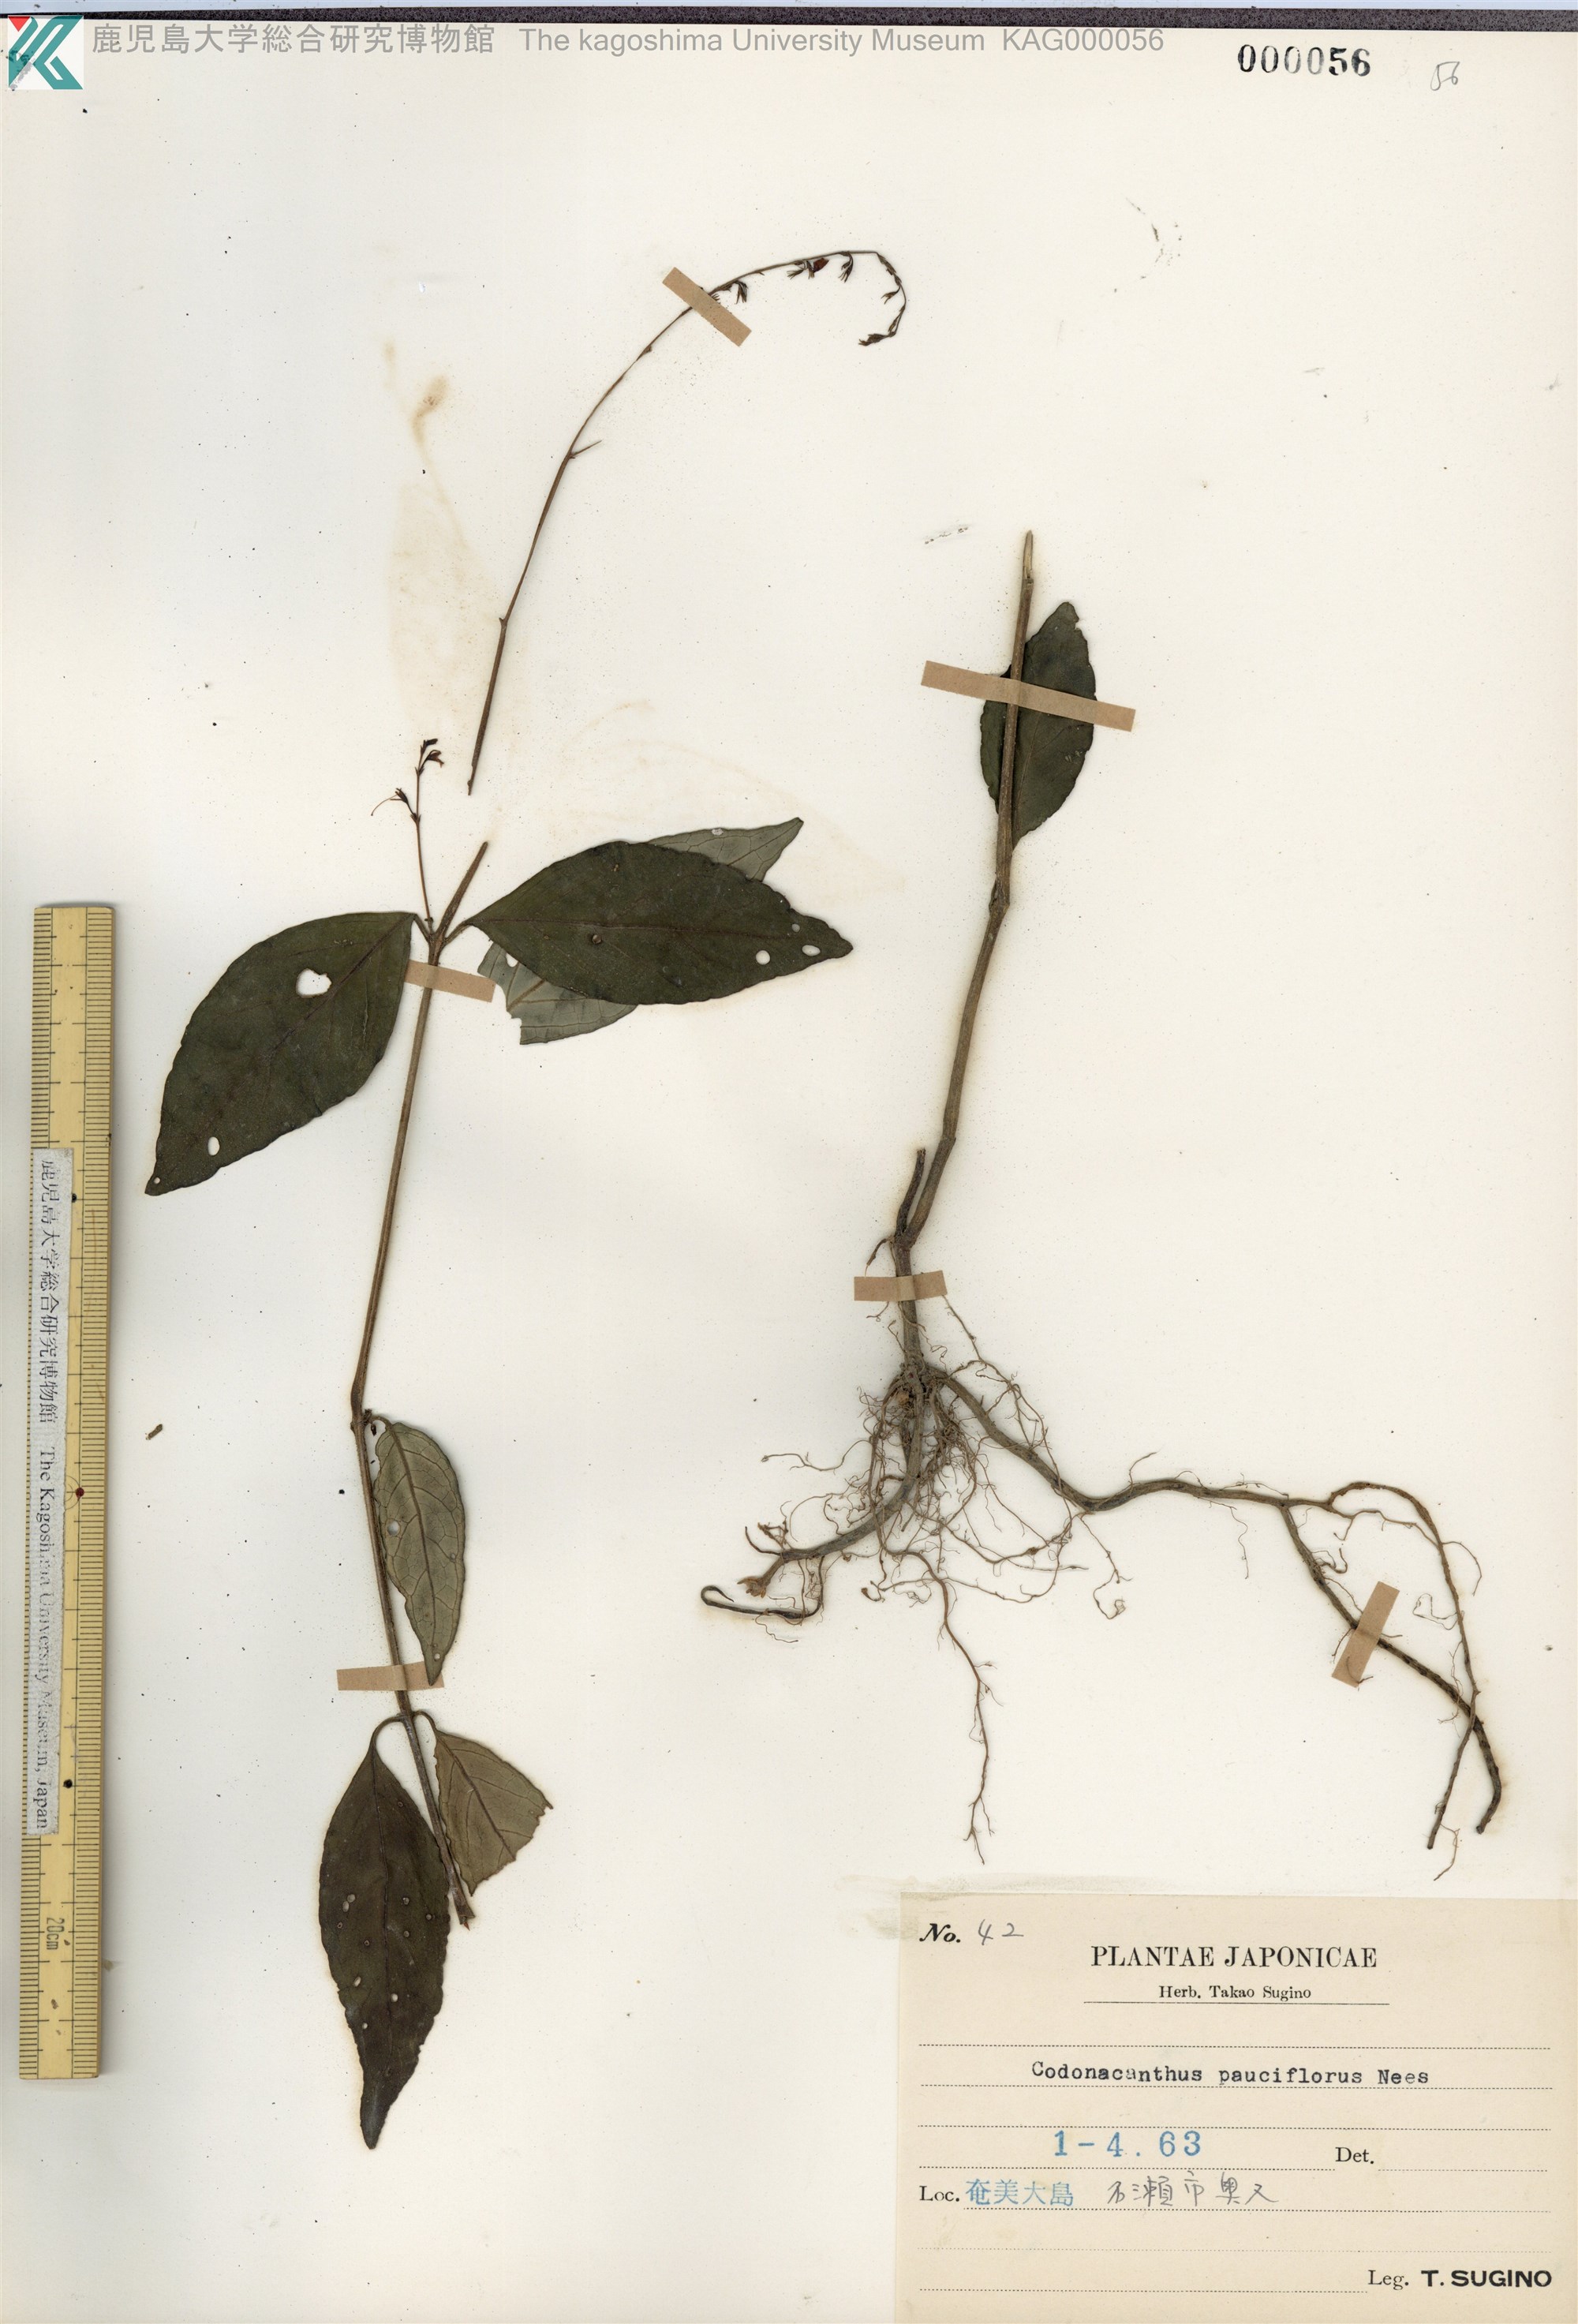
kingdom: Plantae
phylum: Tracheophyta
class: Magnoliopsida
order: Lamiales
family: Acanthaceae
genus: Codonacanthus
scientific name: Codonacanthus pauciflorus
